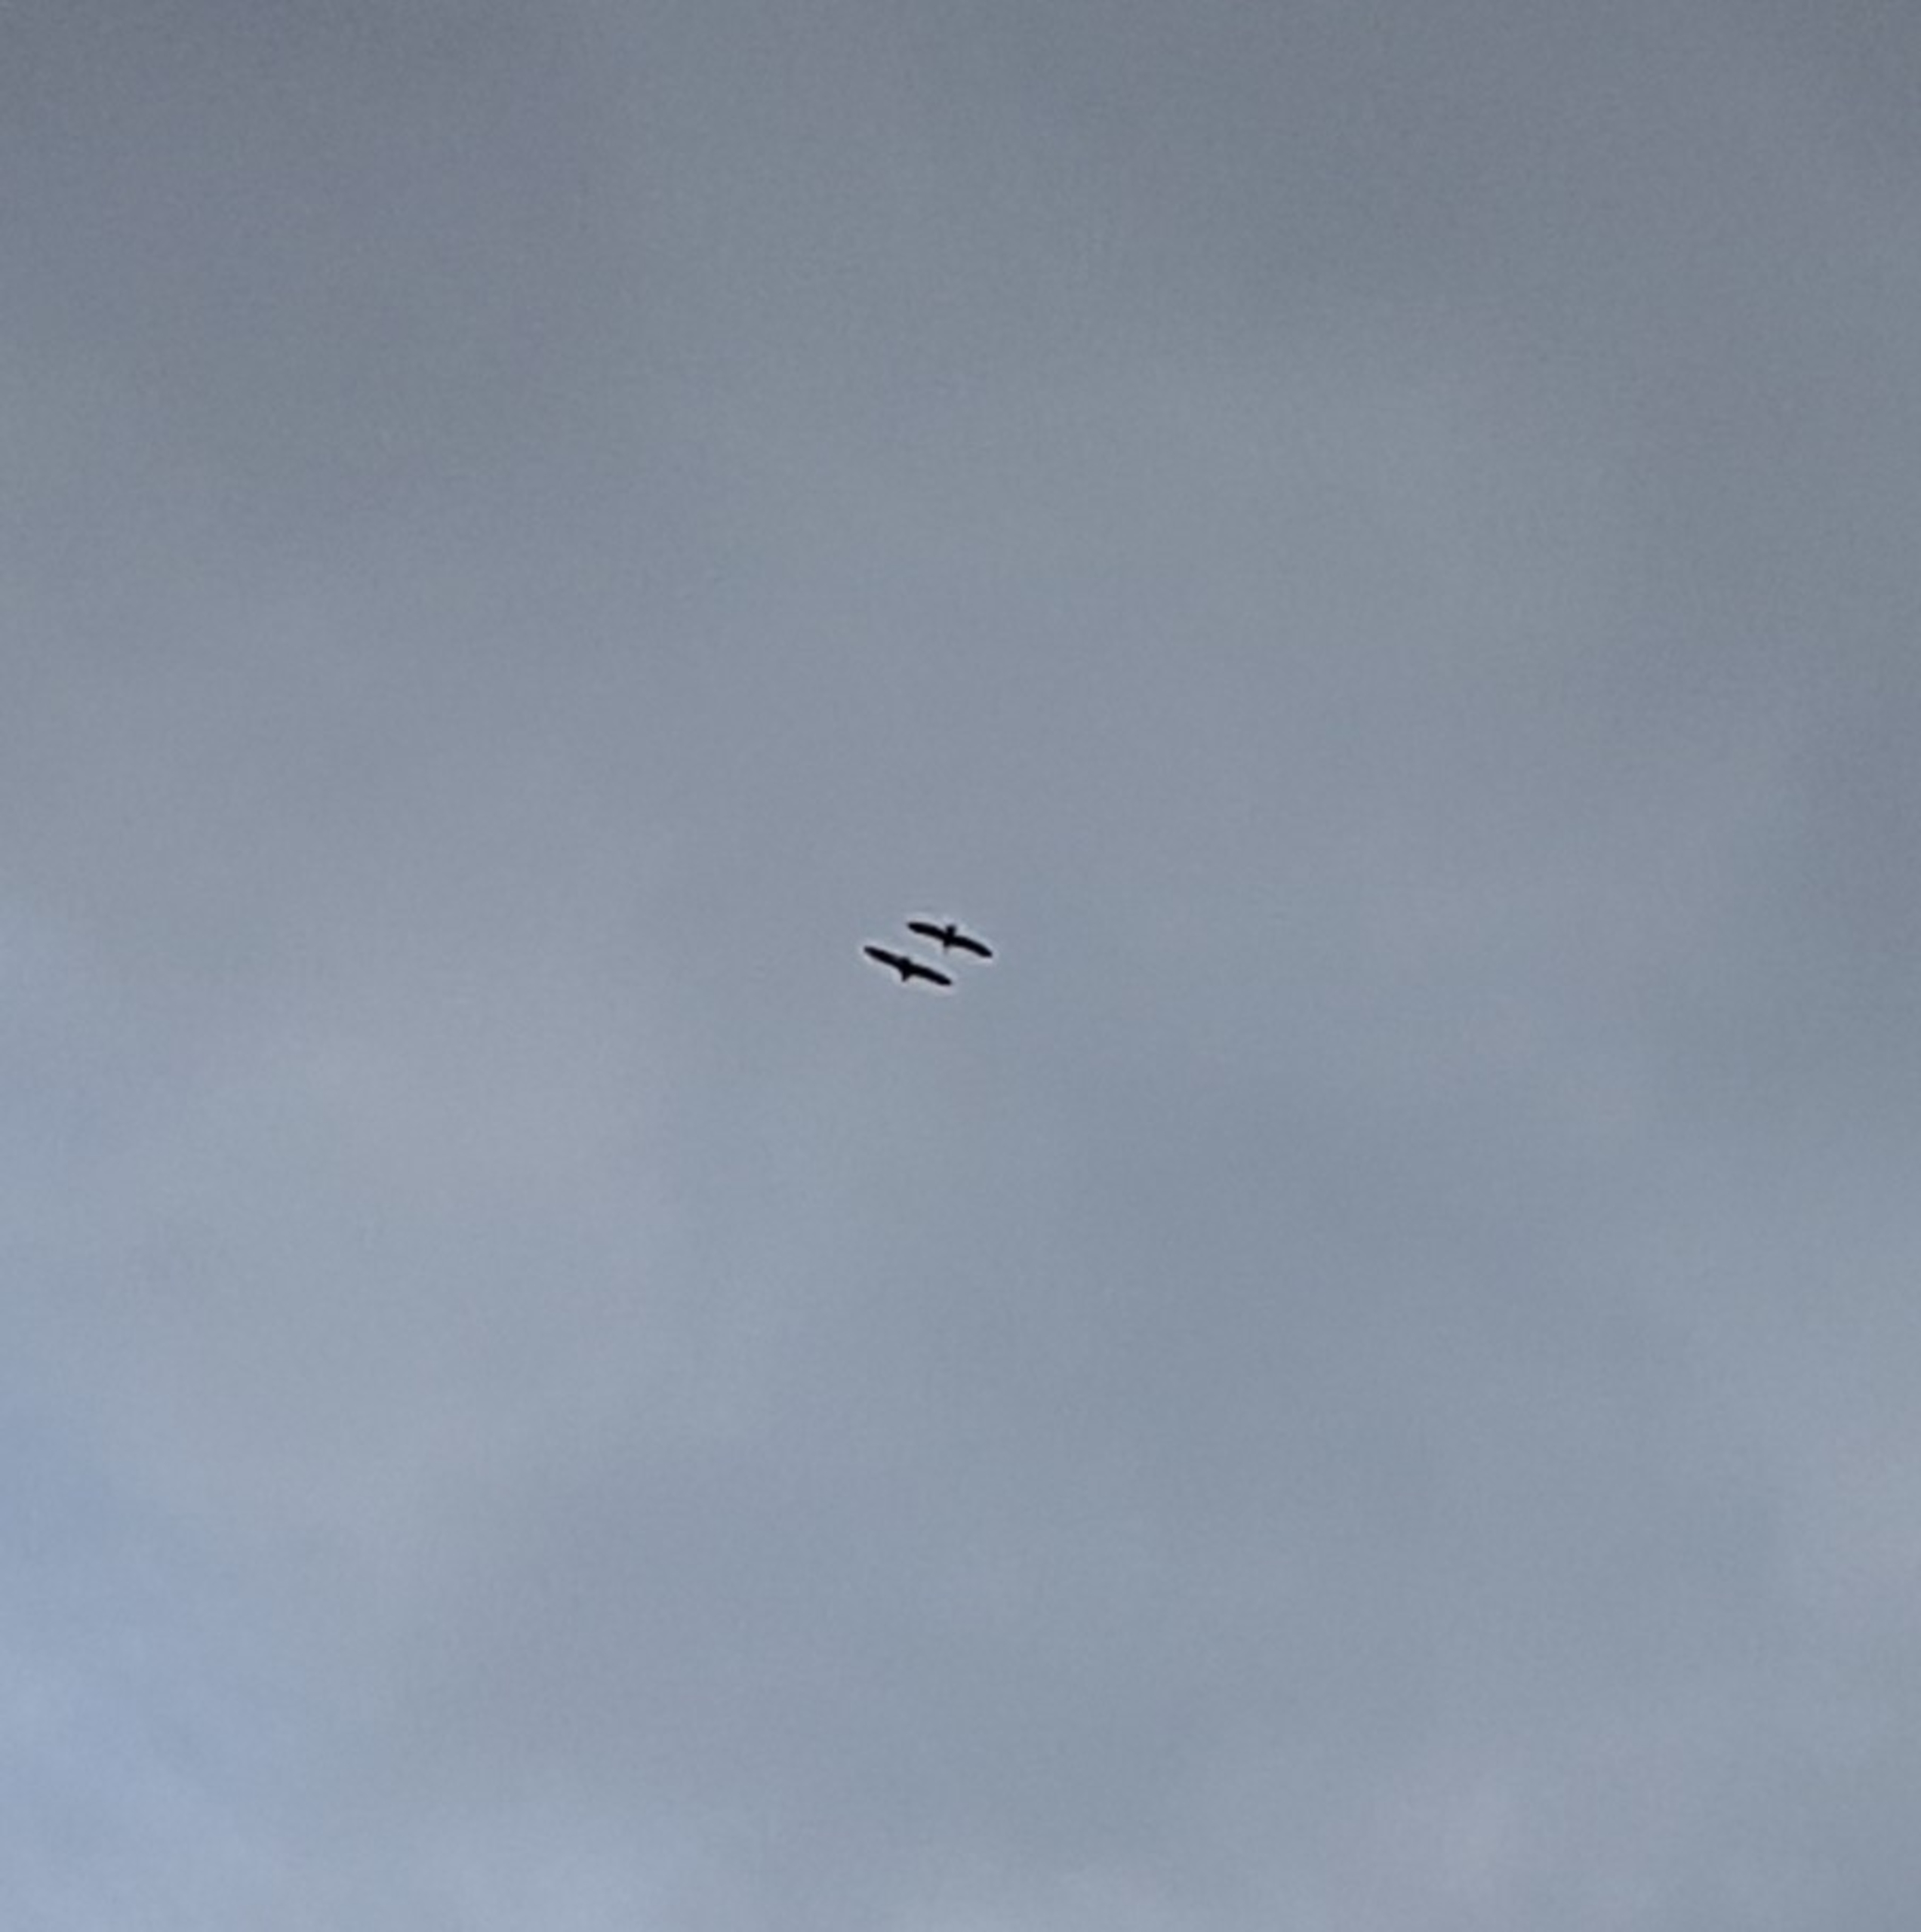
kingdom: Animalia
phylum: Chordata
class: Aves
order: Accipitriformes
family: Accipitridae
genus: Haliaeetus
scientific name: Haliaeetus albicilla
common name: Havørn
